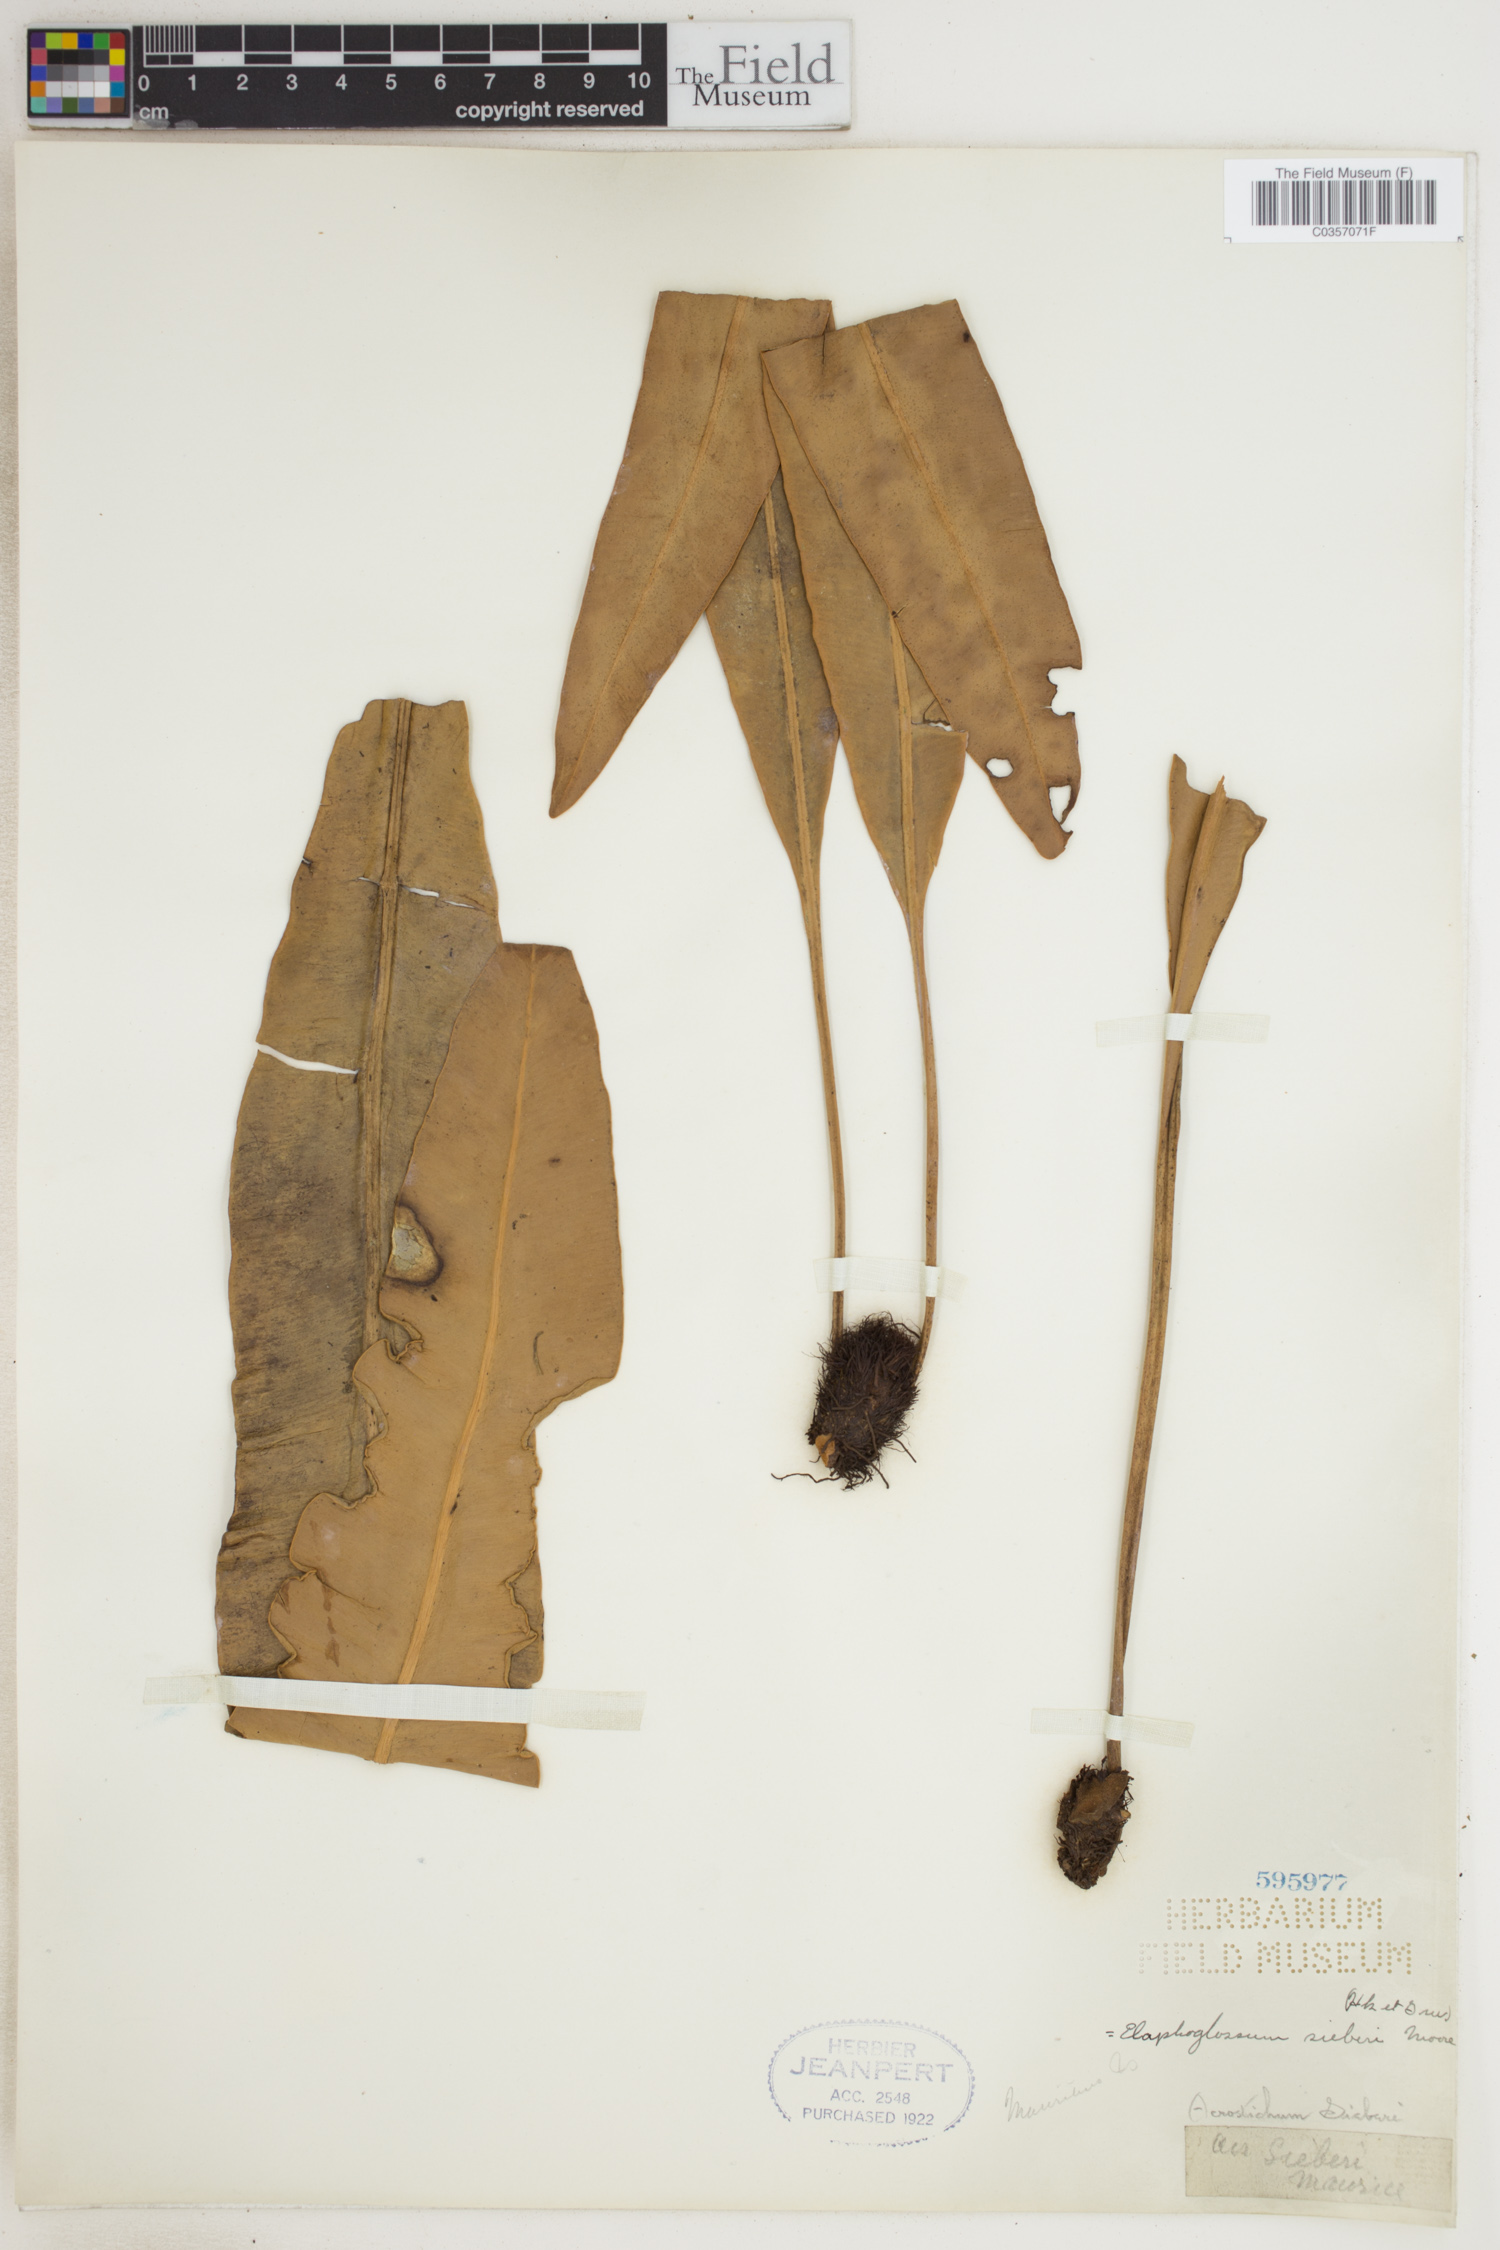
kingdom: Plantae
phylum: Tracheophyta
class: Polypodiopsida
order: Polypodiales
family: Dryopteridaceae
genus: Elaphoglossum
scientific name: Elaphoglossum sieberi
